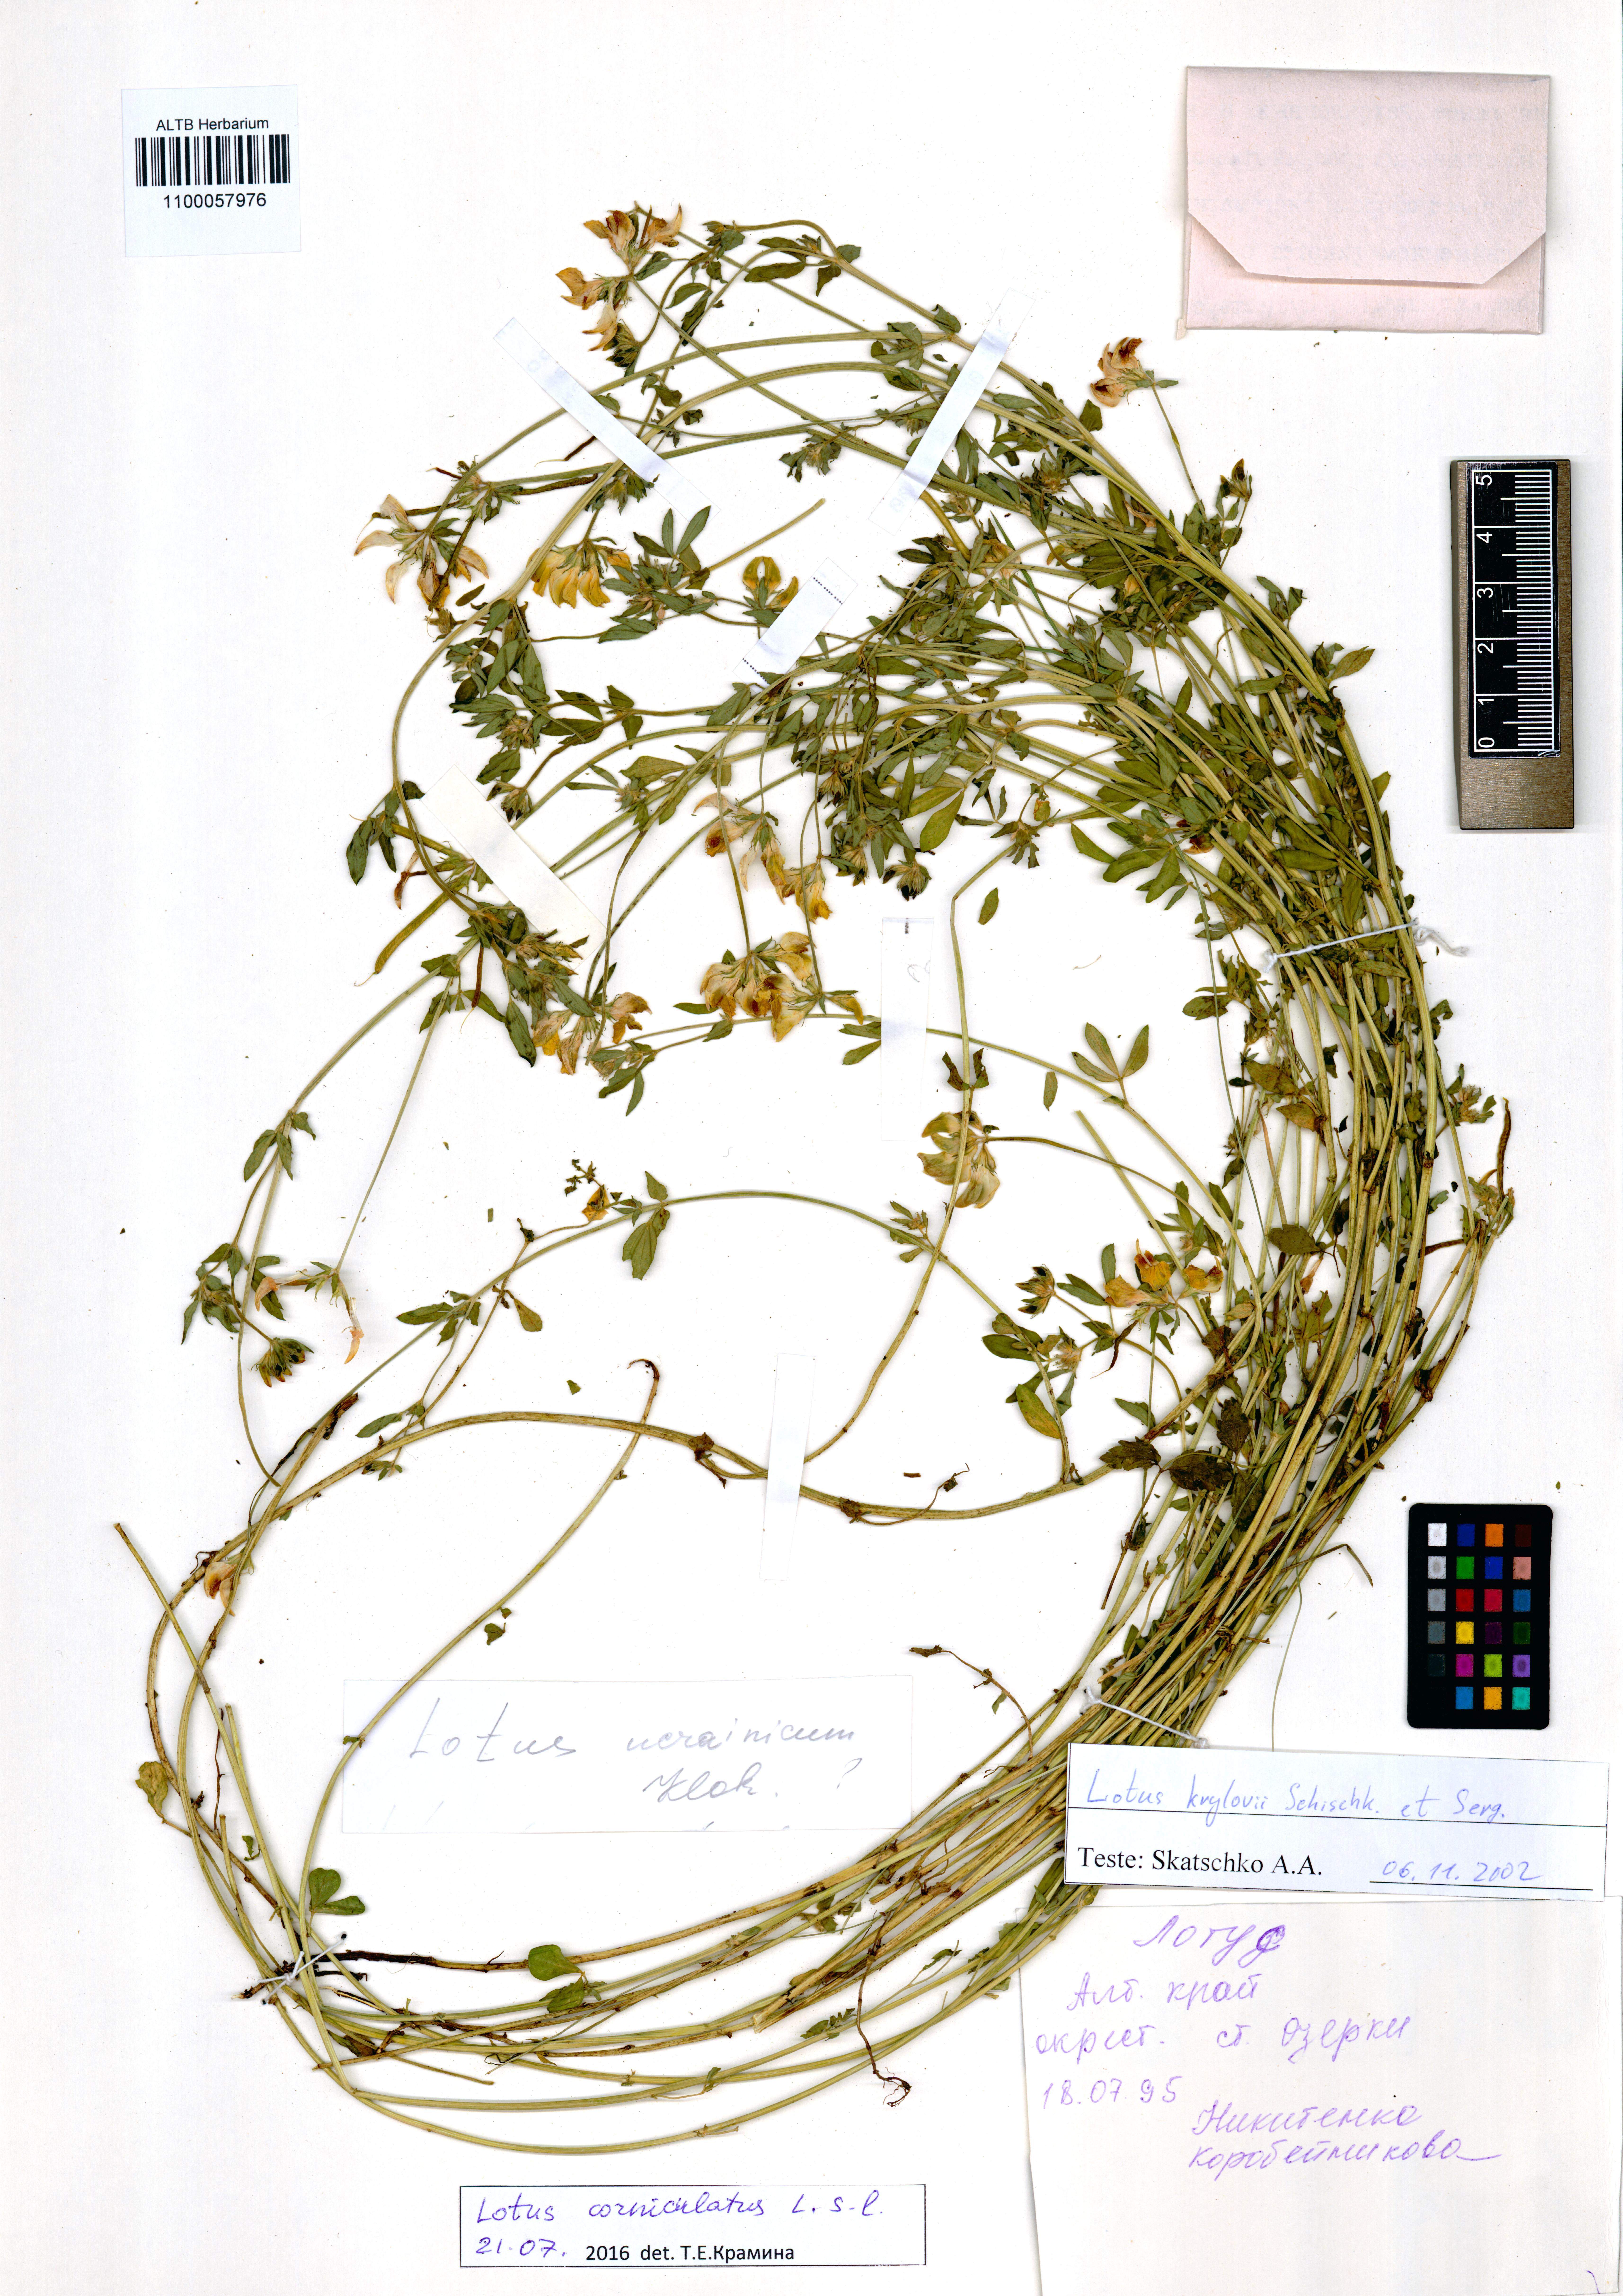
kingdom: Plantae
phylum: Tracheophyta
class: Magnoliopsida
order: Fabales
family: Fabaceae
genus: Lotus
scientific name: Lotus corniculatus
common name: Common bird's-foot-trefoil
